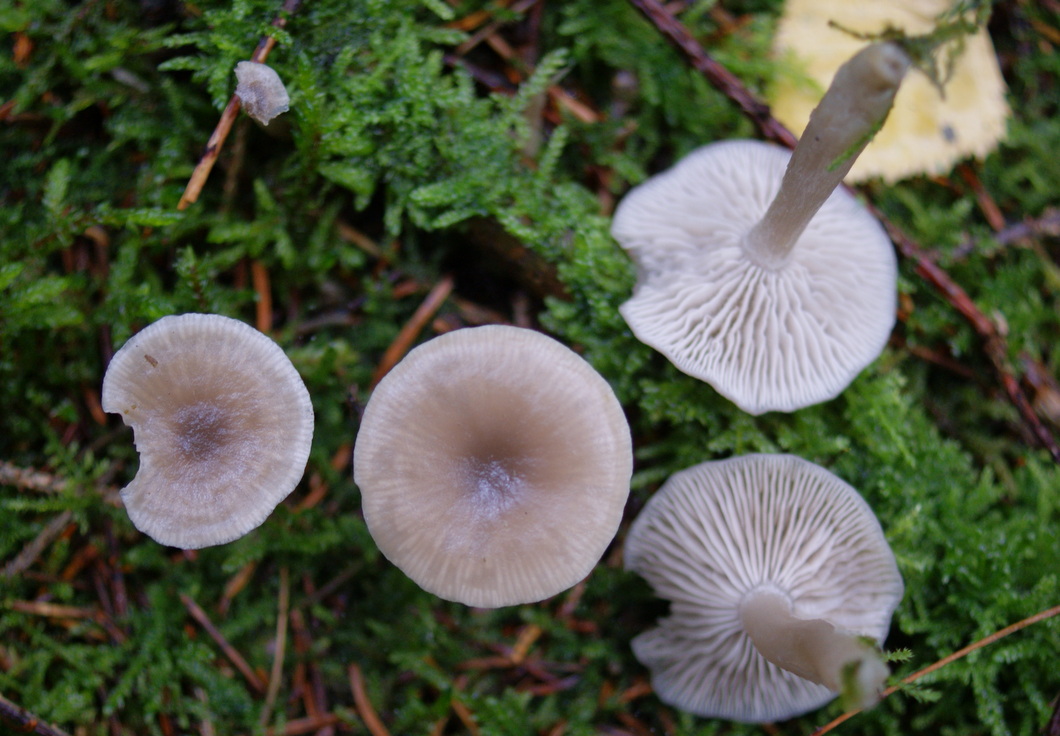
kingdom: Fungi
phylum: Basidiomycota
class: Agaricomycetes
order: Agaricales
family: Tricholomataceae
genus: Clitocybe
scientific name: Clitocybe vibecina
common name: randstribet tragthat
